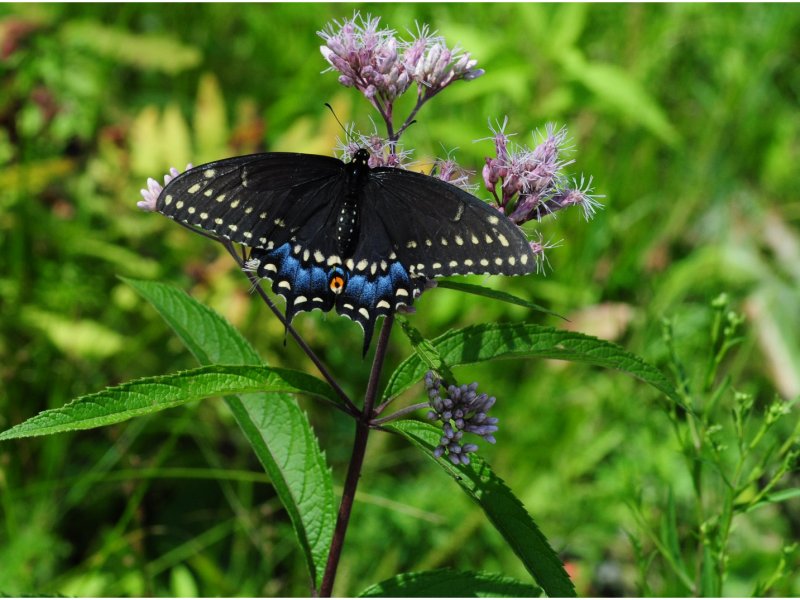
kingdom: Animalia
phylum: Arthropoda
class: Insecta
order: Lepidoptera
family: Papilionidae
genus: Papilio
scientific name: Papilio polyxenes
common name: Black Swallowtail
